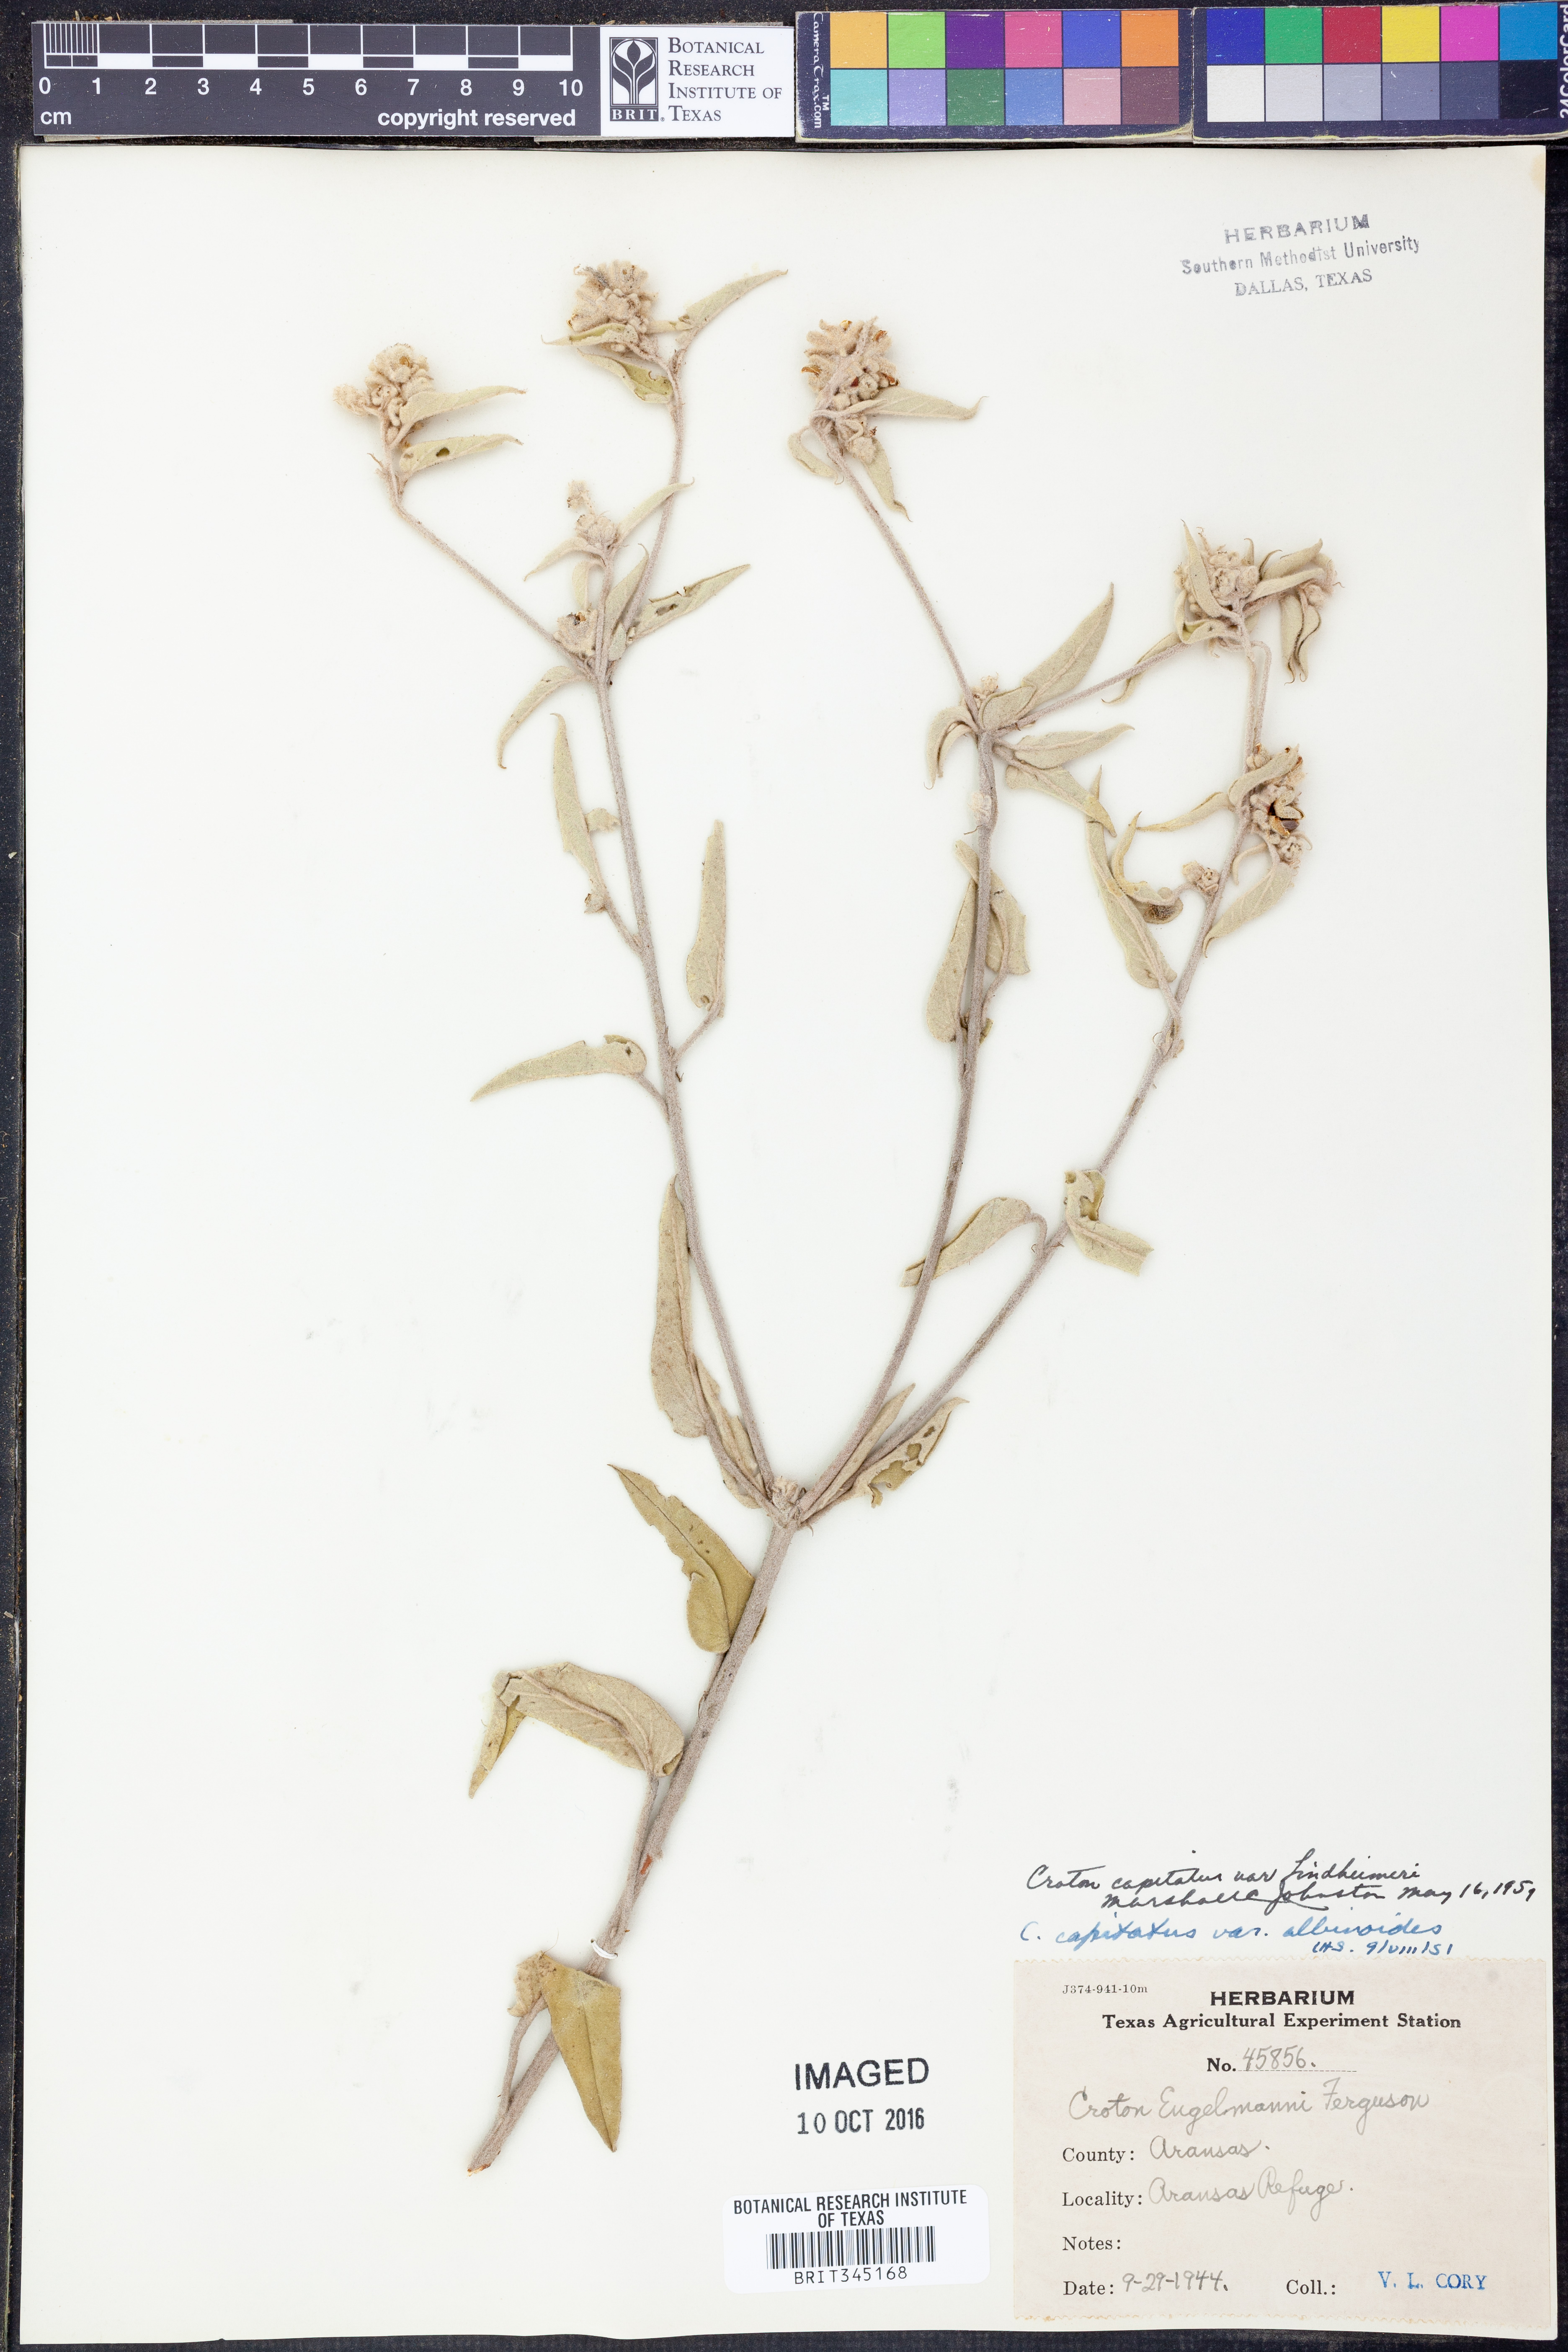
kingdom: Plantae
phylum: Tracheophyta
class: Magnoliopsida
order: Malpighiales
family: Euphorbiaceae
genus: Croton
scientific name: Croton lindheimeri
